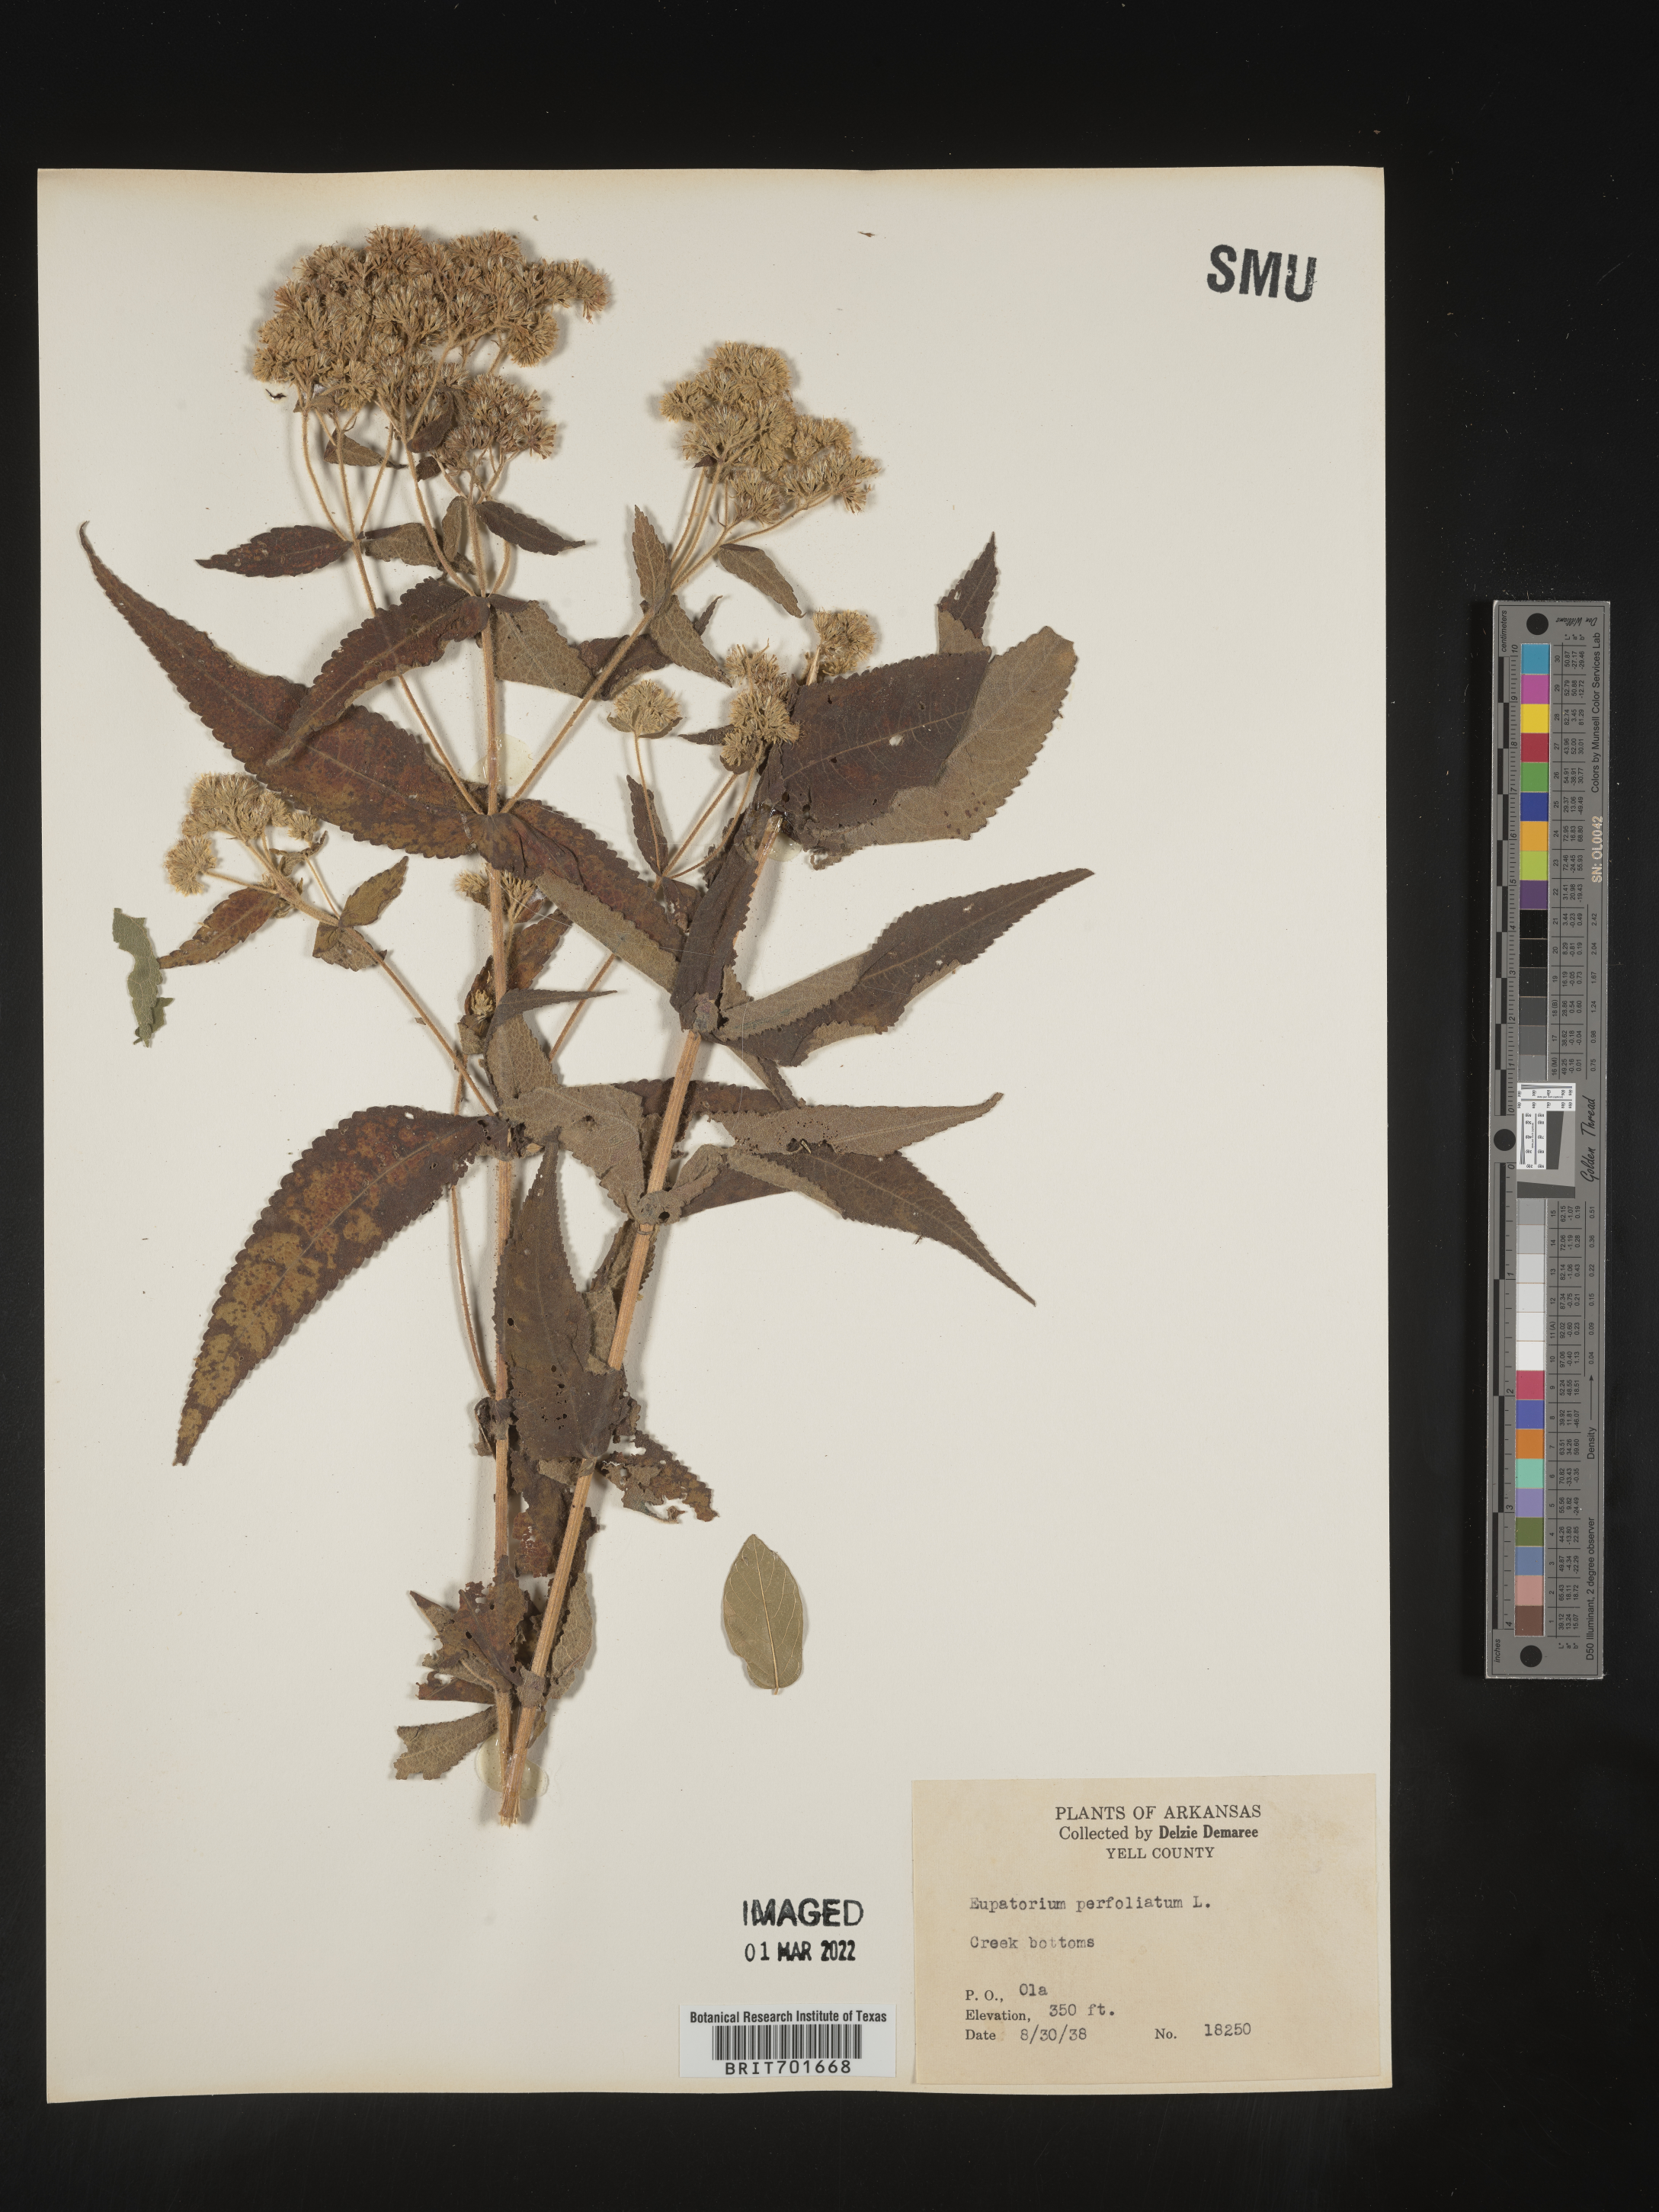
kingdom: Plantae
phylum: Tracheophyta
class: Magnoliopsida
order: Asterales
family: Asteraceae
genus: Eupatorium
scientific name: Eupatorium perfoliatum
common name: Boneset
